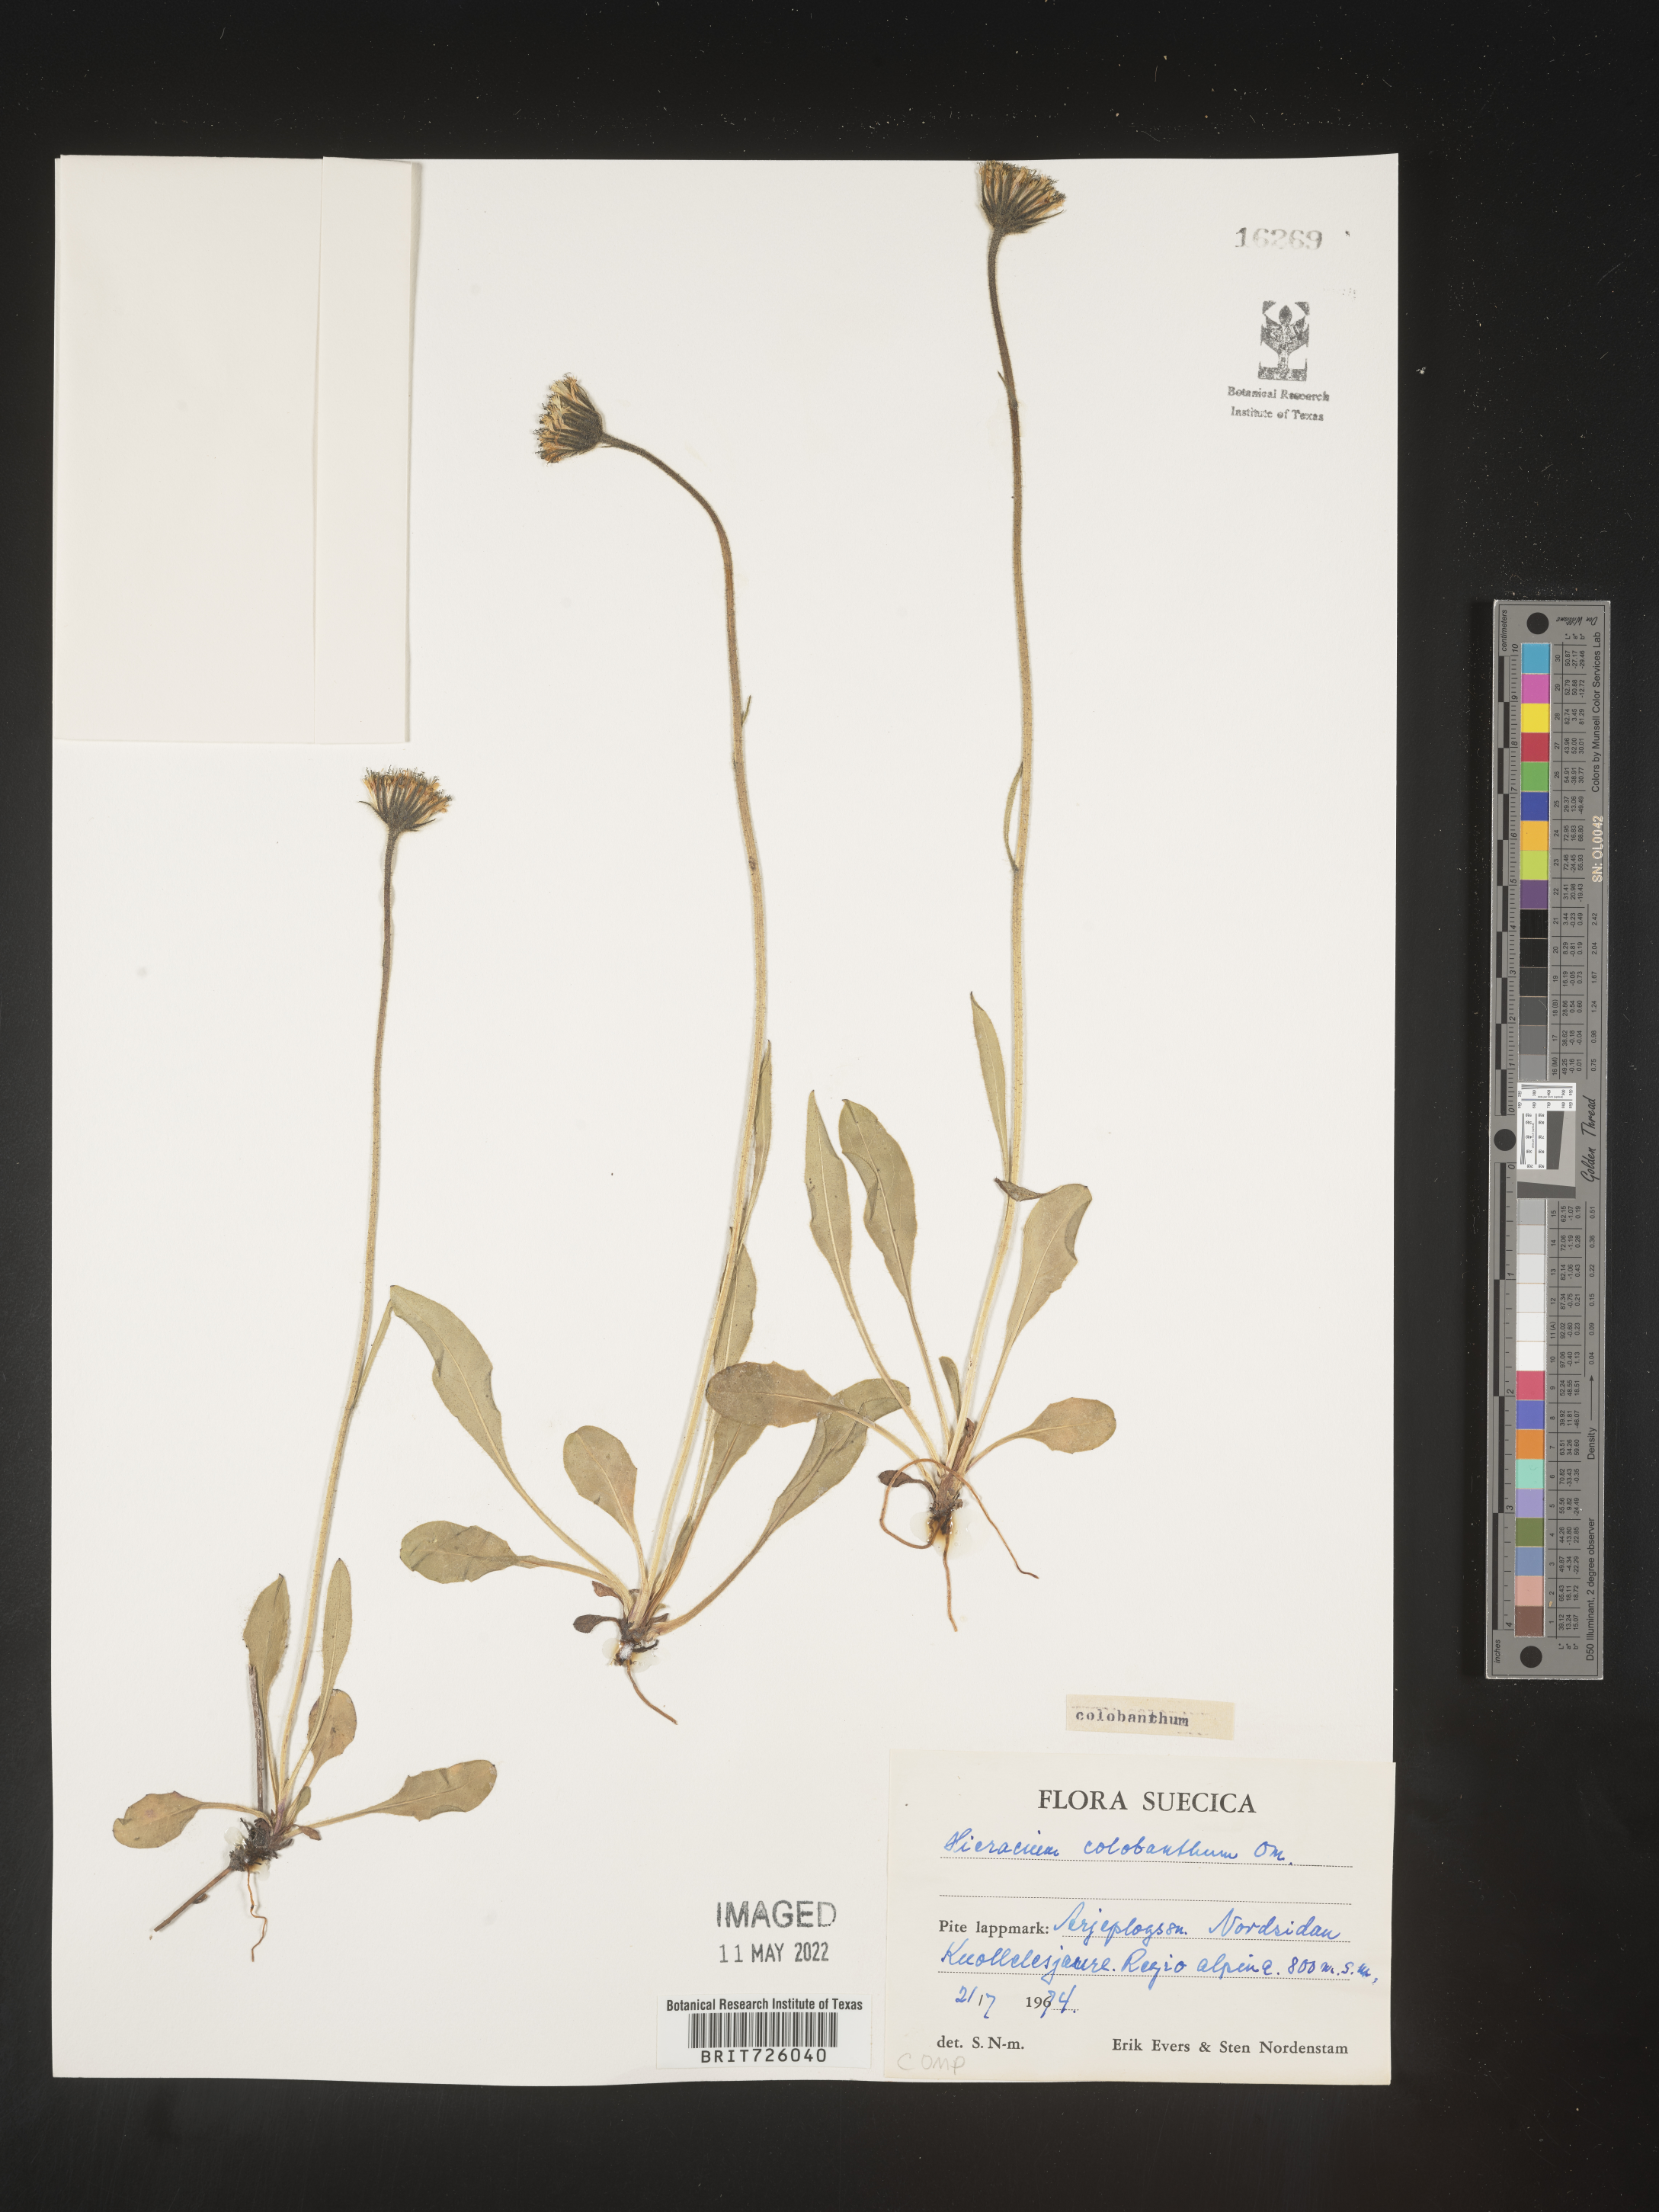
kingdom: Plantae
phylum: Tracheophyta
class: Magnoliopsida
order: Asterales
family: Asteraceae
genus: Hieracium
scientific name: Hieracium
